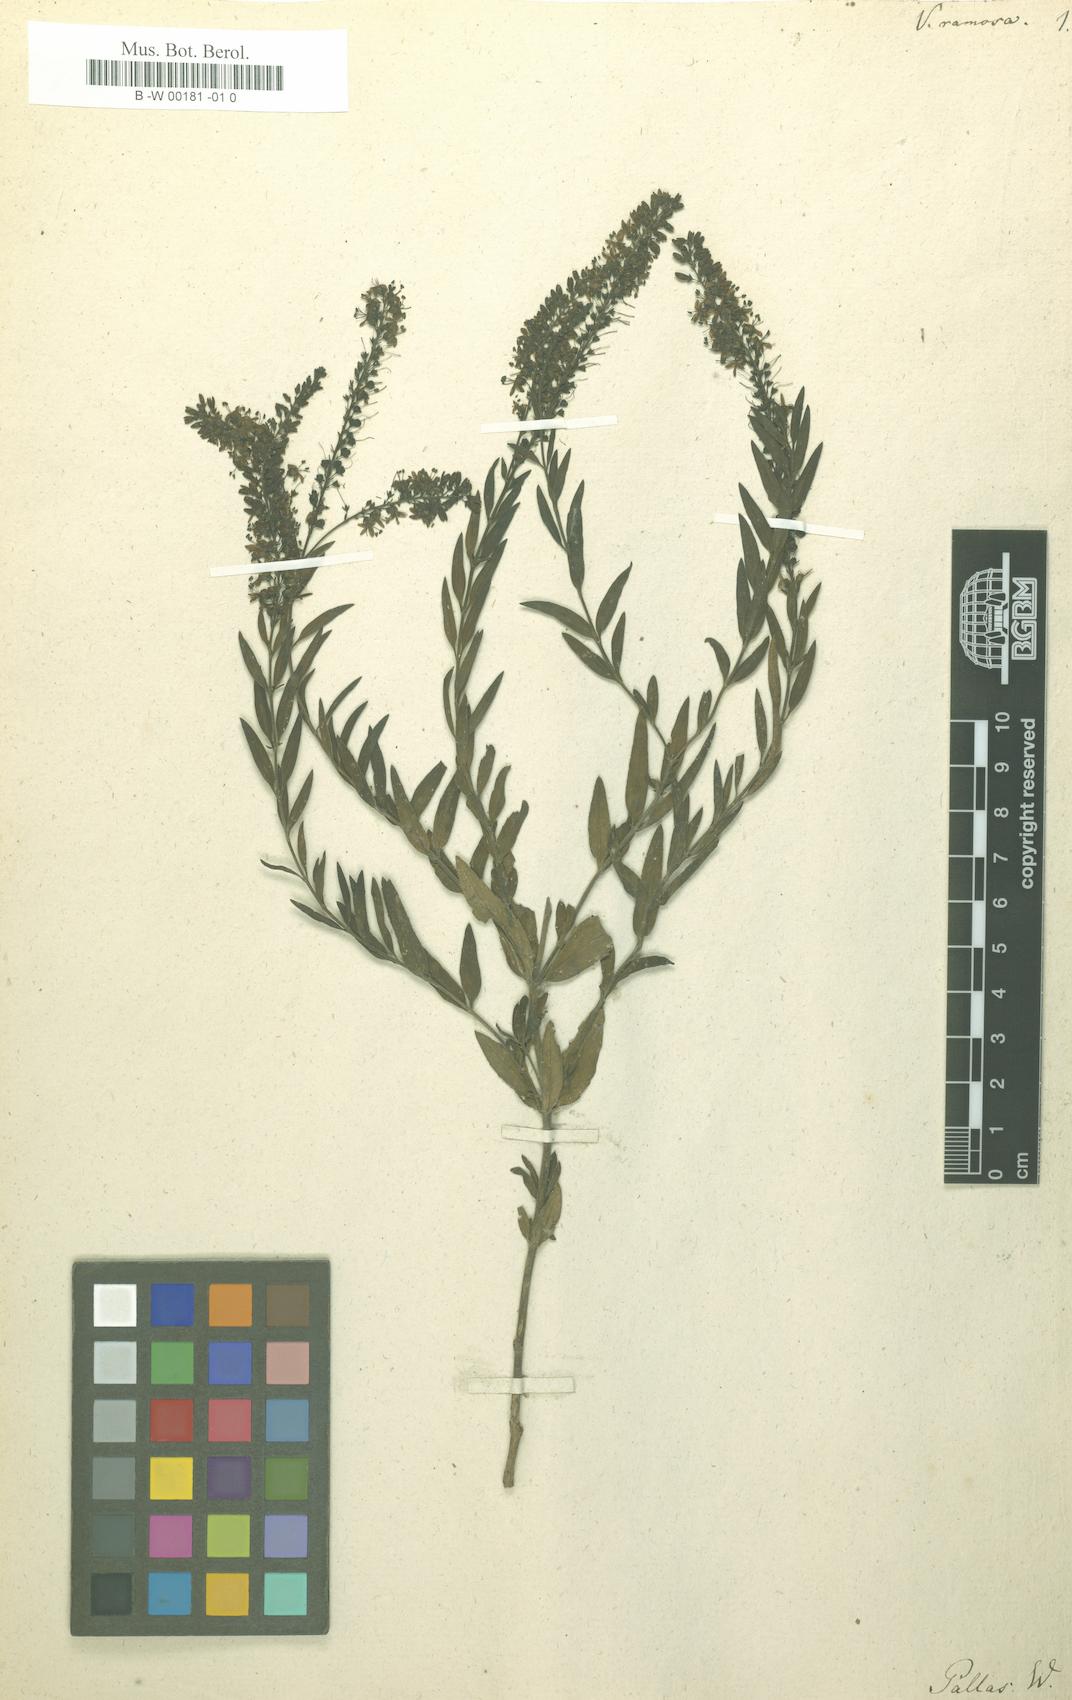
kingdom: Plantae
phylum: Tracheophyta
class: Magnoliopsida
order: Lamiales
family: Plantaginaceae
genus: Veronica
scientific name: Veronica ramosa
